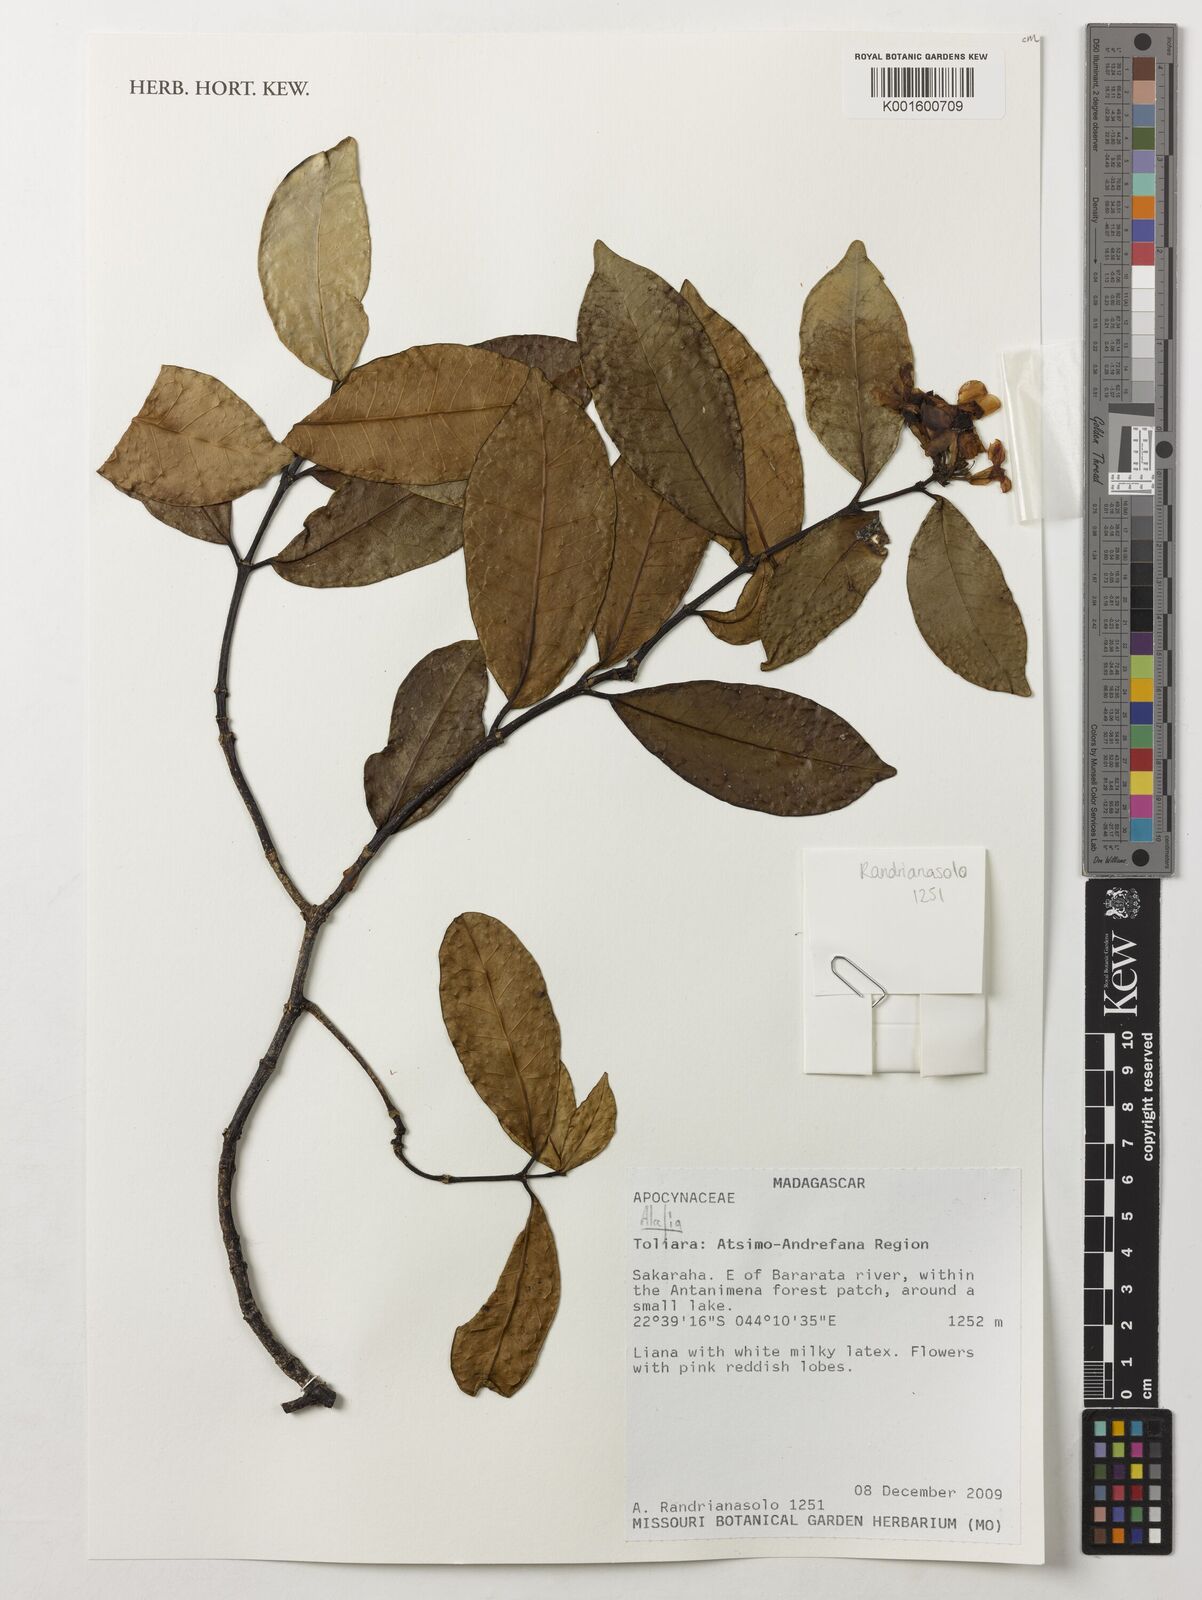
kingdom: Plantae
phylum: Tracheophyta
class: Magnoliopsida
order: Gentianales
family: Apocynaceae
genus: Alafia
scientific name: Alafia
